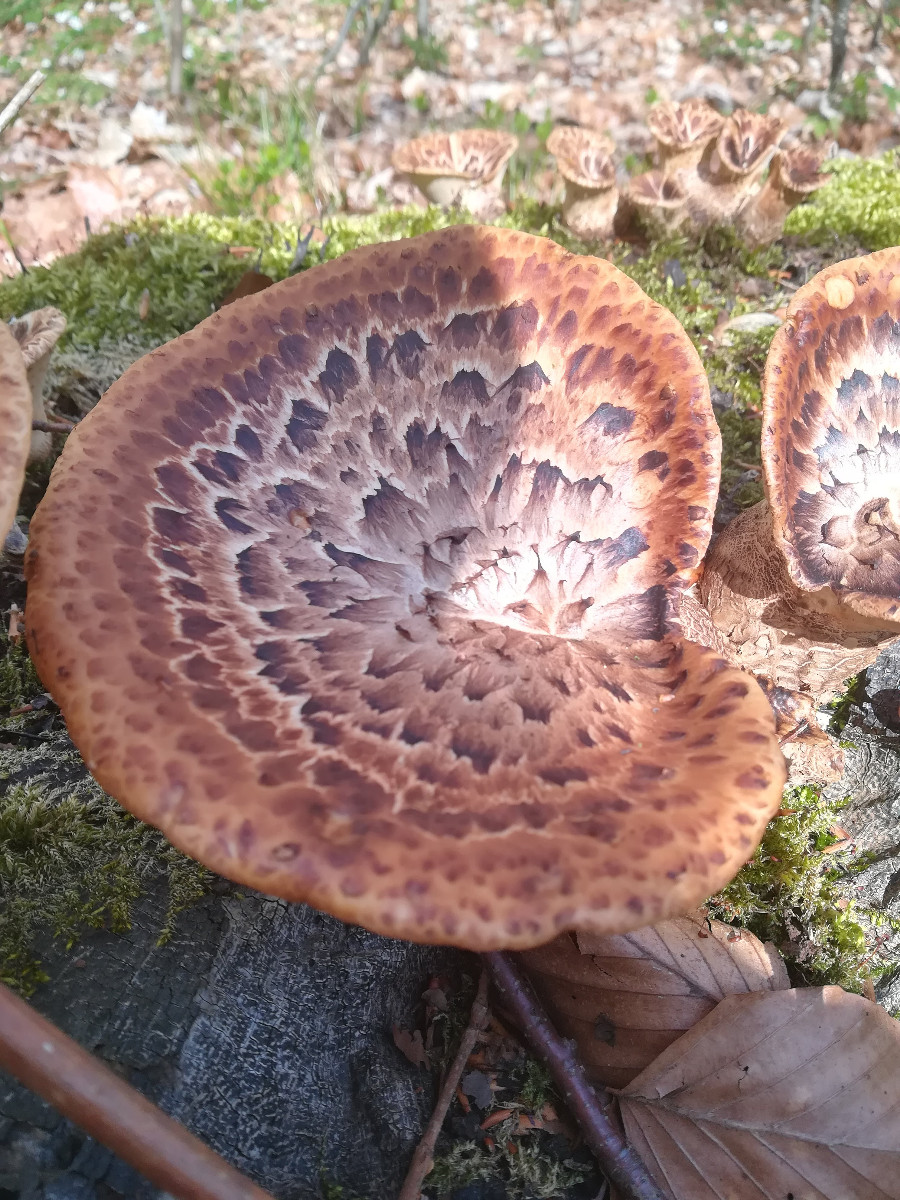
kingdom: Fungi
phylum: Basidiomycota
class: Agaricomycetes
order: Polyporales
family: Polyporaceae
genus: Cerioporus
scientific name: Cerioporus squamosus
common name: skællet stilkporesvamp
